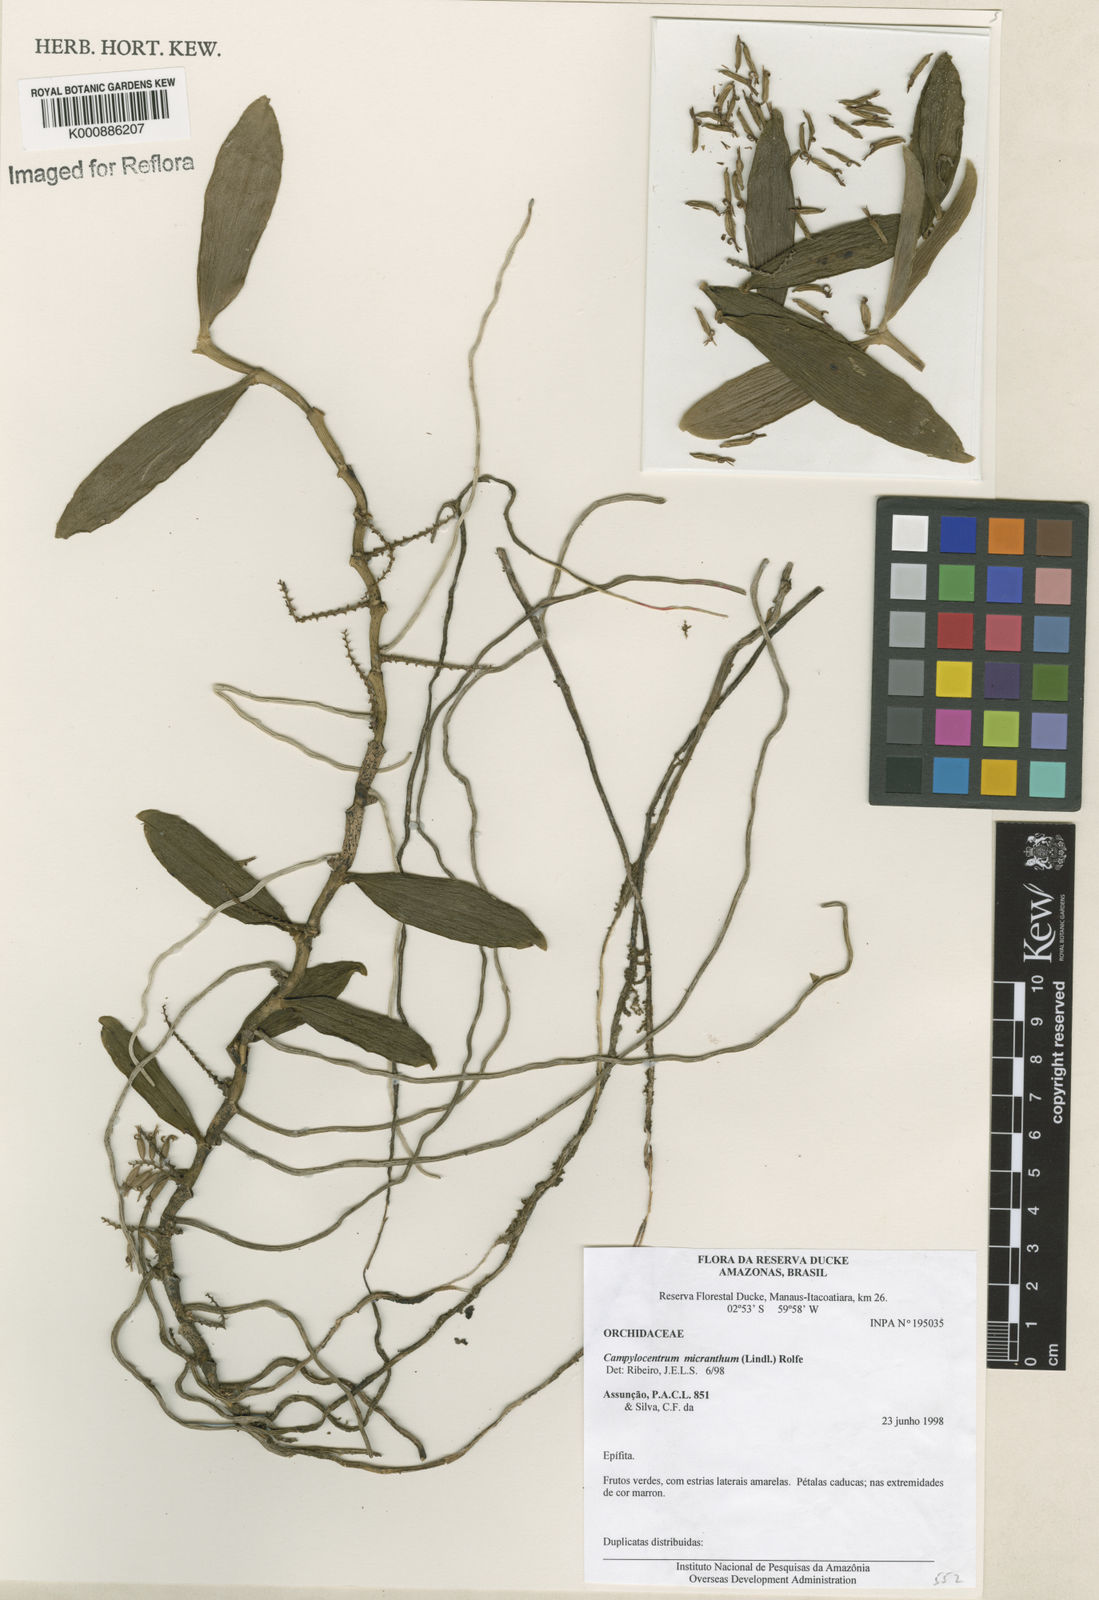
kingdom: Plantae
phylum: Tracheophyta
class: Liliopsida
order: Asparagales
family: Orchidaceae
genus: Campylocentrum
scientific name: Campylocentrum micranthum
